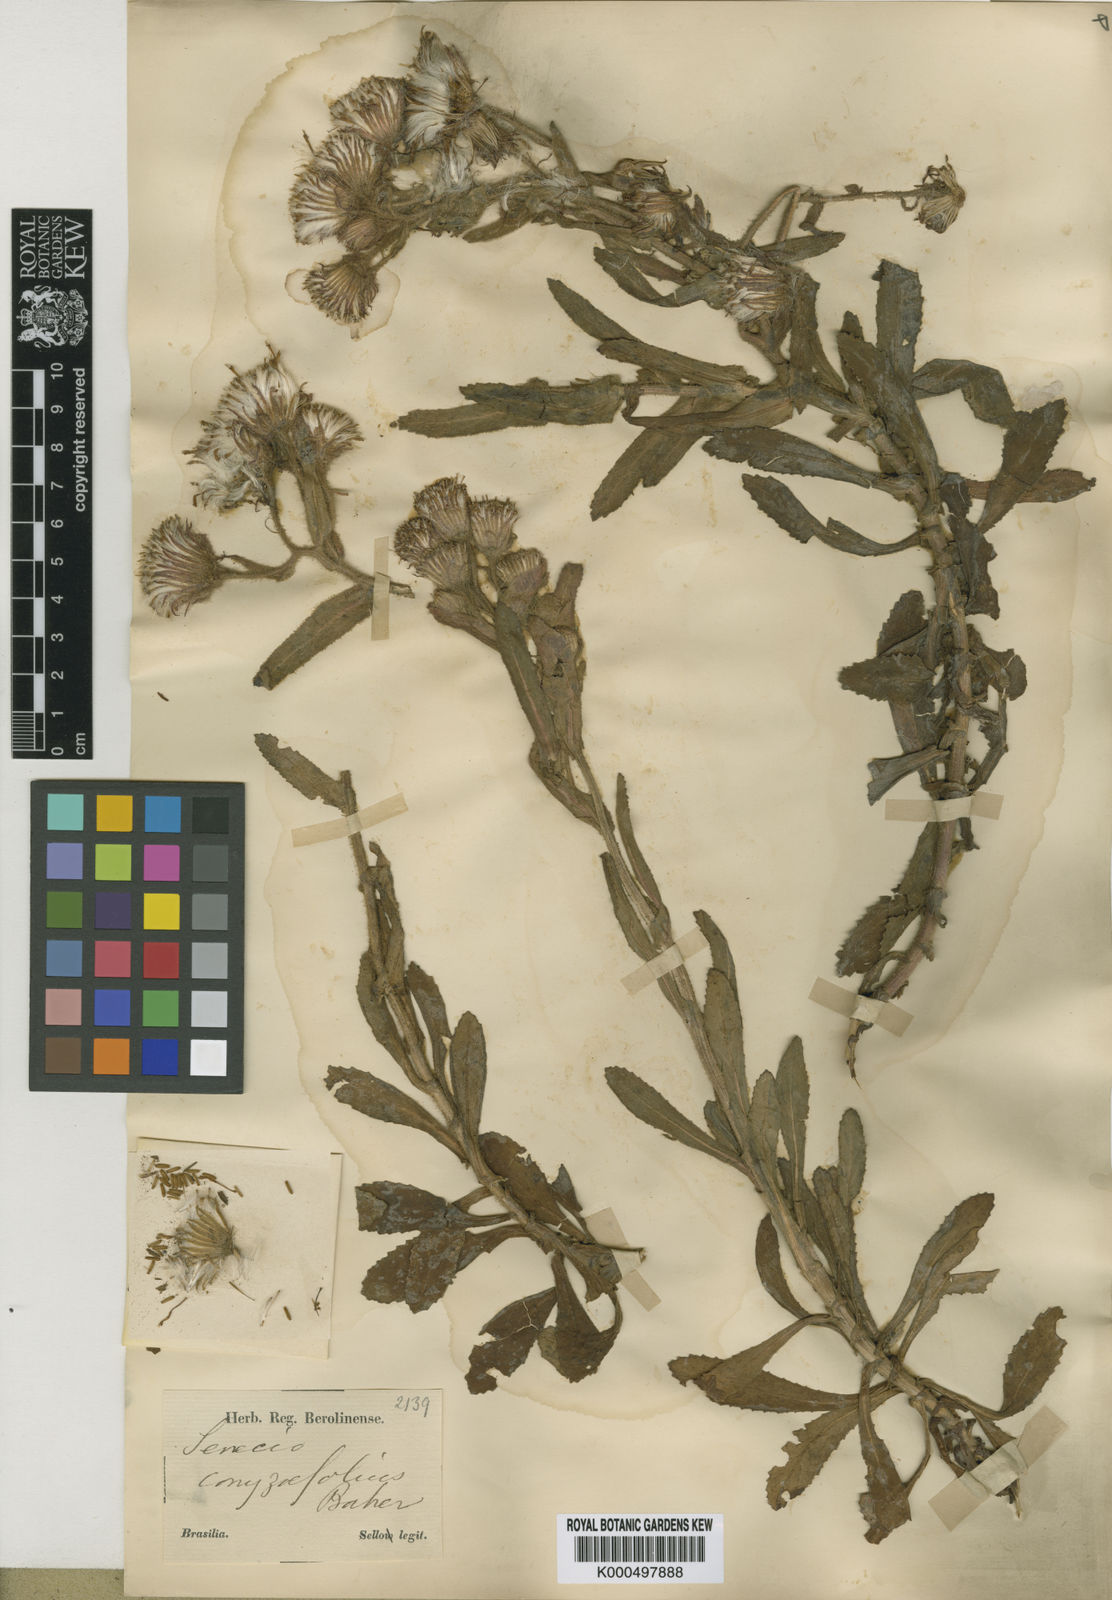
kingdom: Plantae
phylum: Tracheophyta
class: Magnoliopsida
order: Asterales
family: Asteraceae
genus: Senecio
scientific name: Senecio conyzifolius
